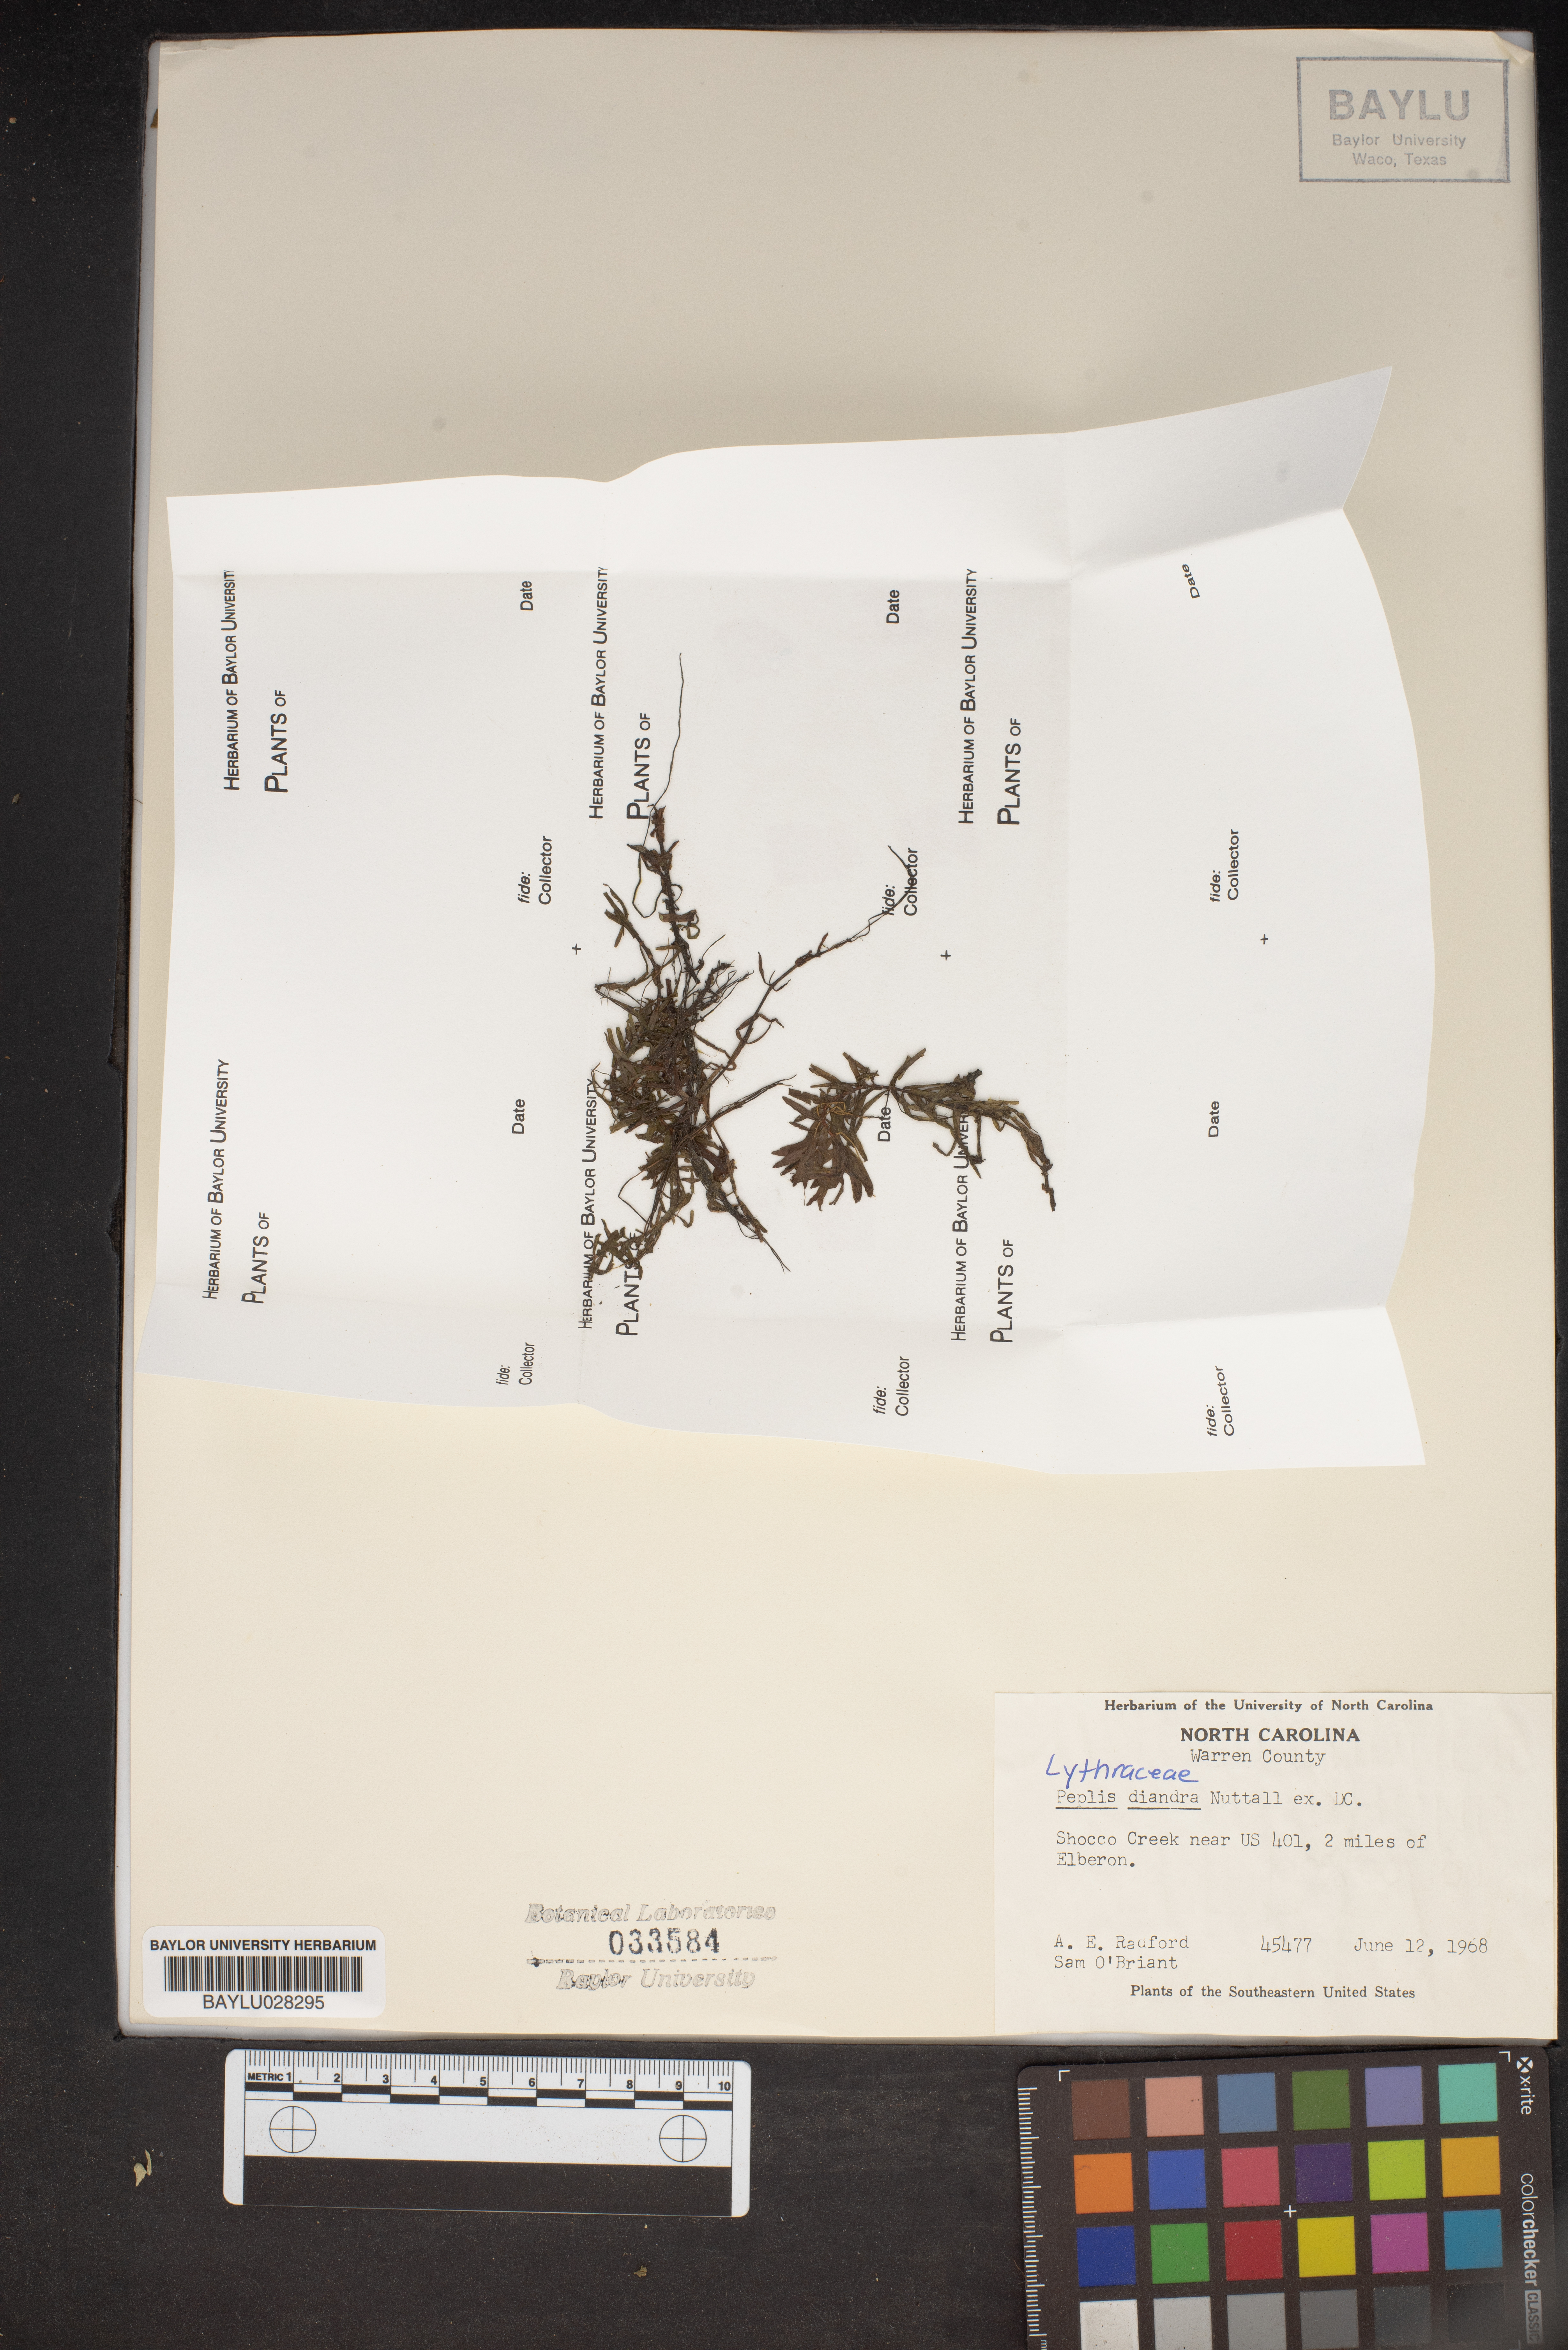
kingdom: Plantae
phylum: Tracheophyta
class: Magnoliopsida
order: Myrtales
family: Lythraceae
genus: Didiplis
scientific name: Didiplis diandra
